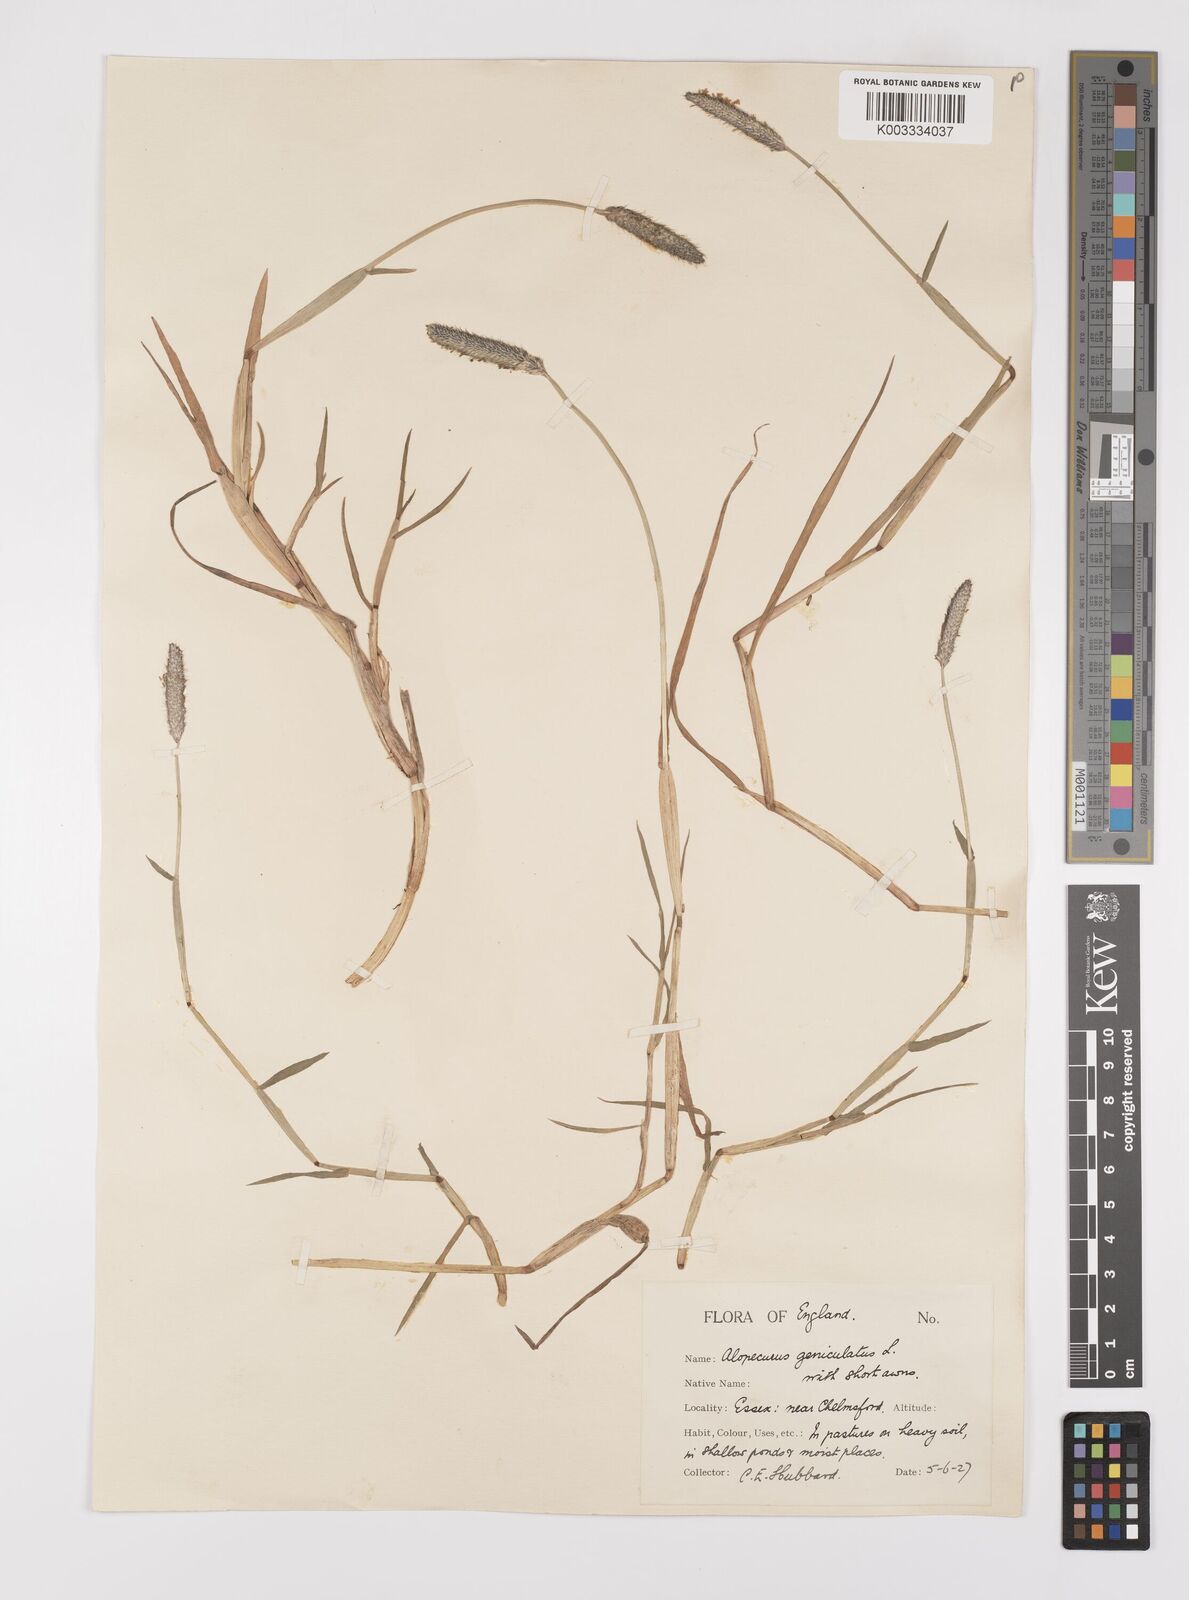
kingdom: Plantae
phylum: Tracheophyta
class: Liliopsida
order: Poales
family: Poaceae
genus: Alopecurus
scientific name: Alopecurus geniculatus
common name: Water foxtail
